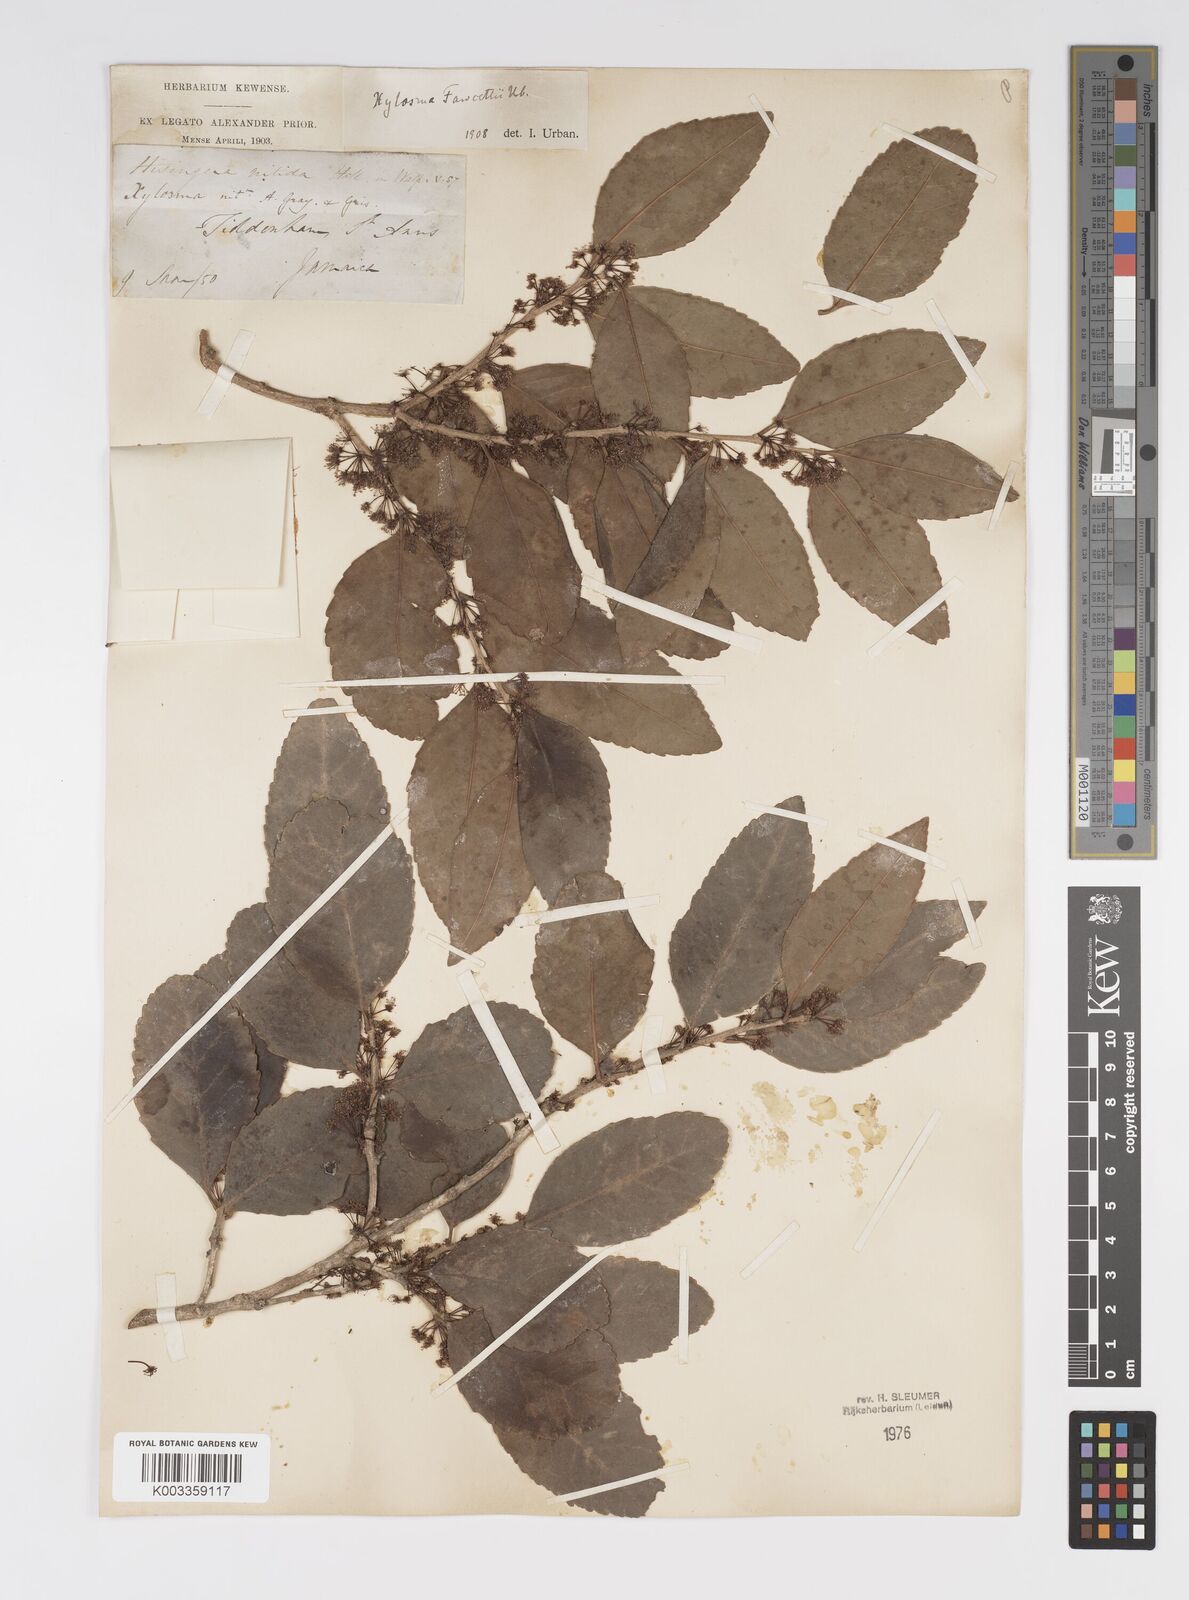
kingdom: Plantae
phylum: Tracheophyta
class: Magnoliopsida
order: Malpighiales
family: Salicaceae
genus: Xylosma
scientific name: Xylosma fawcettii
